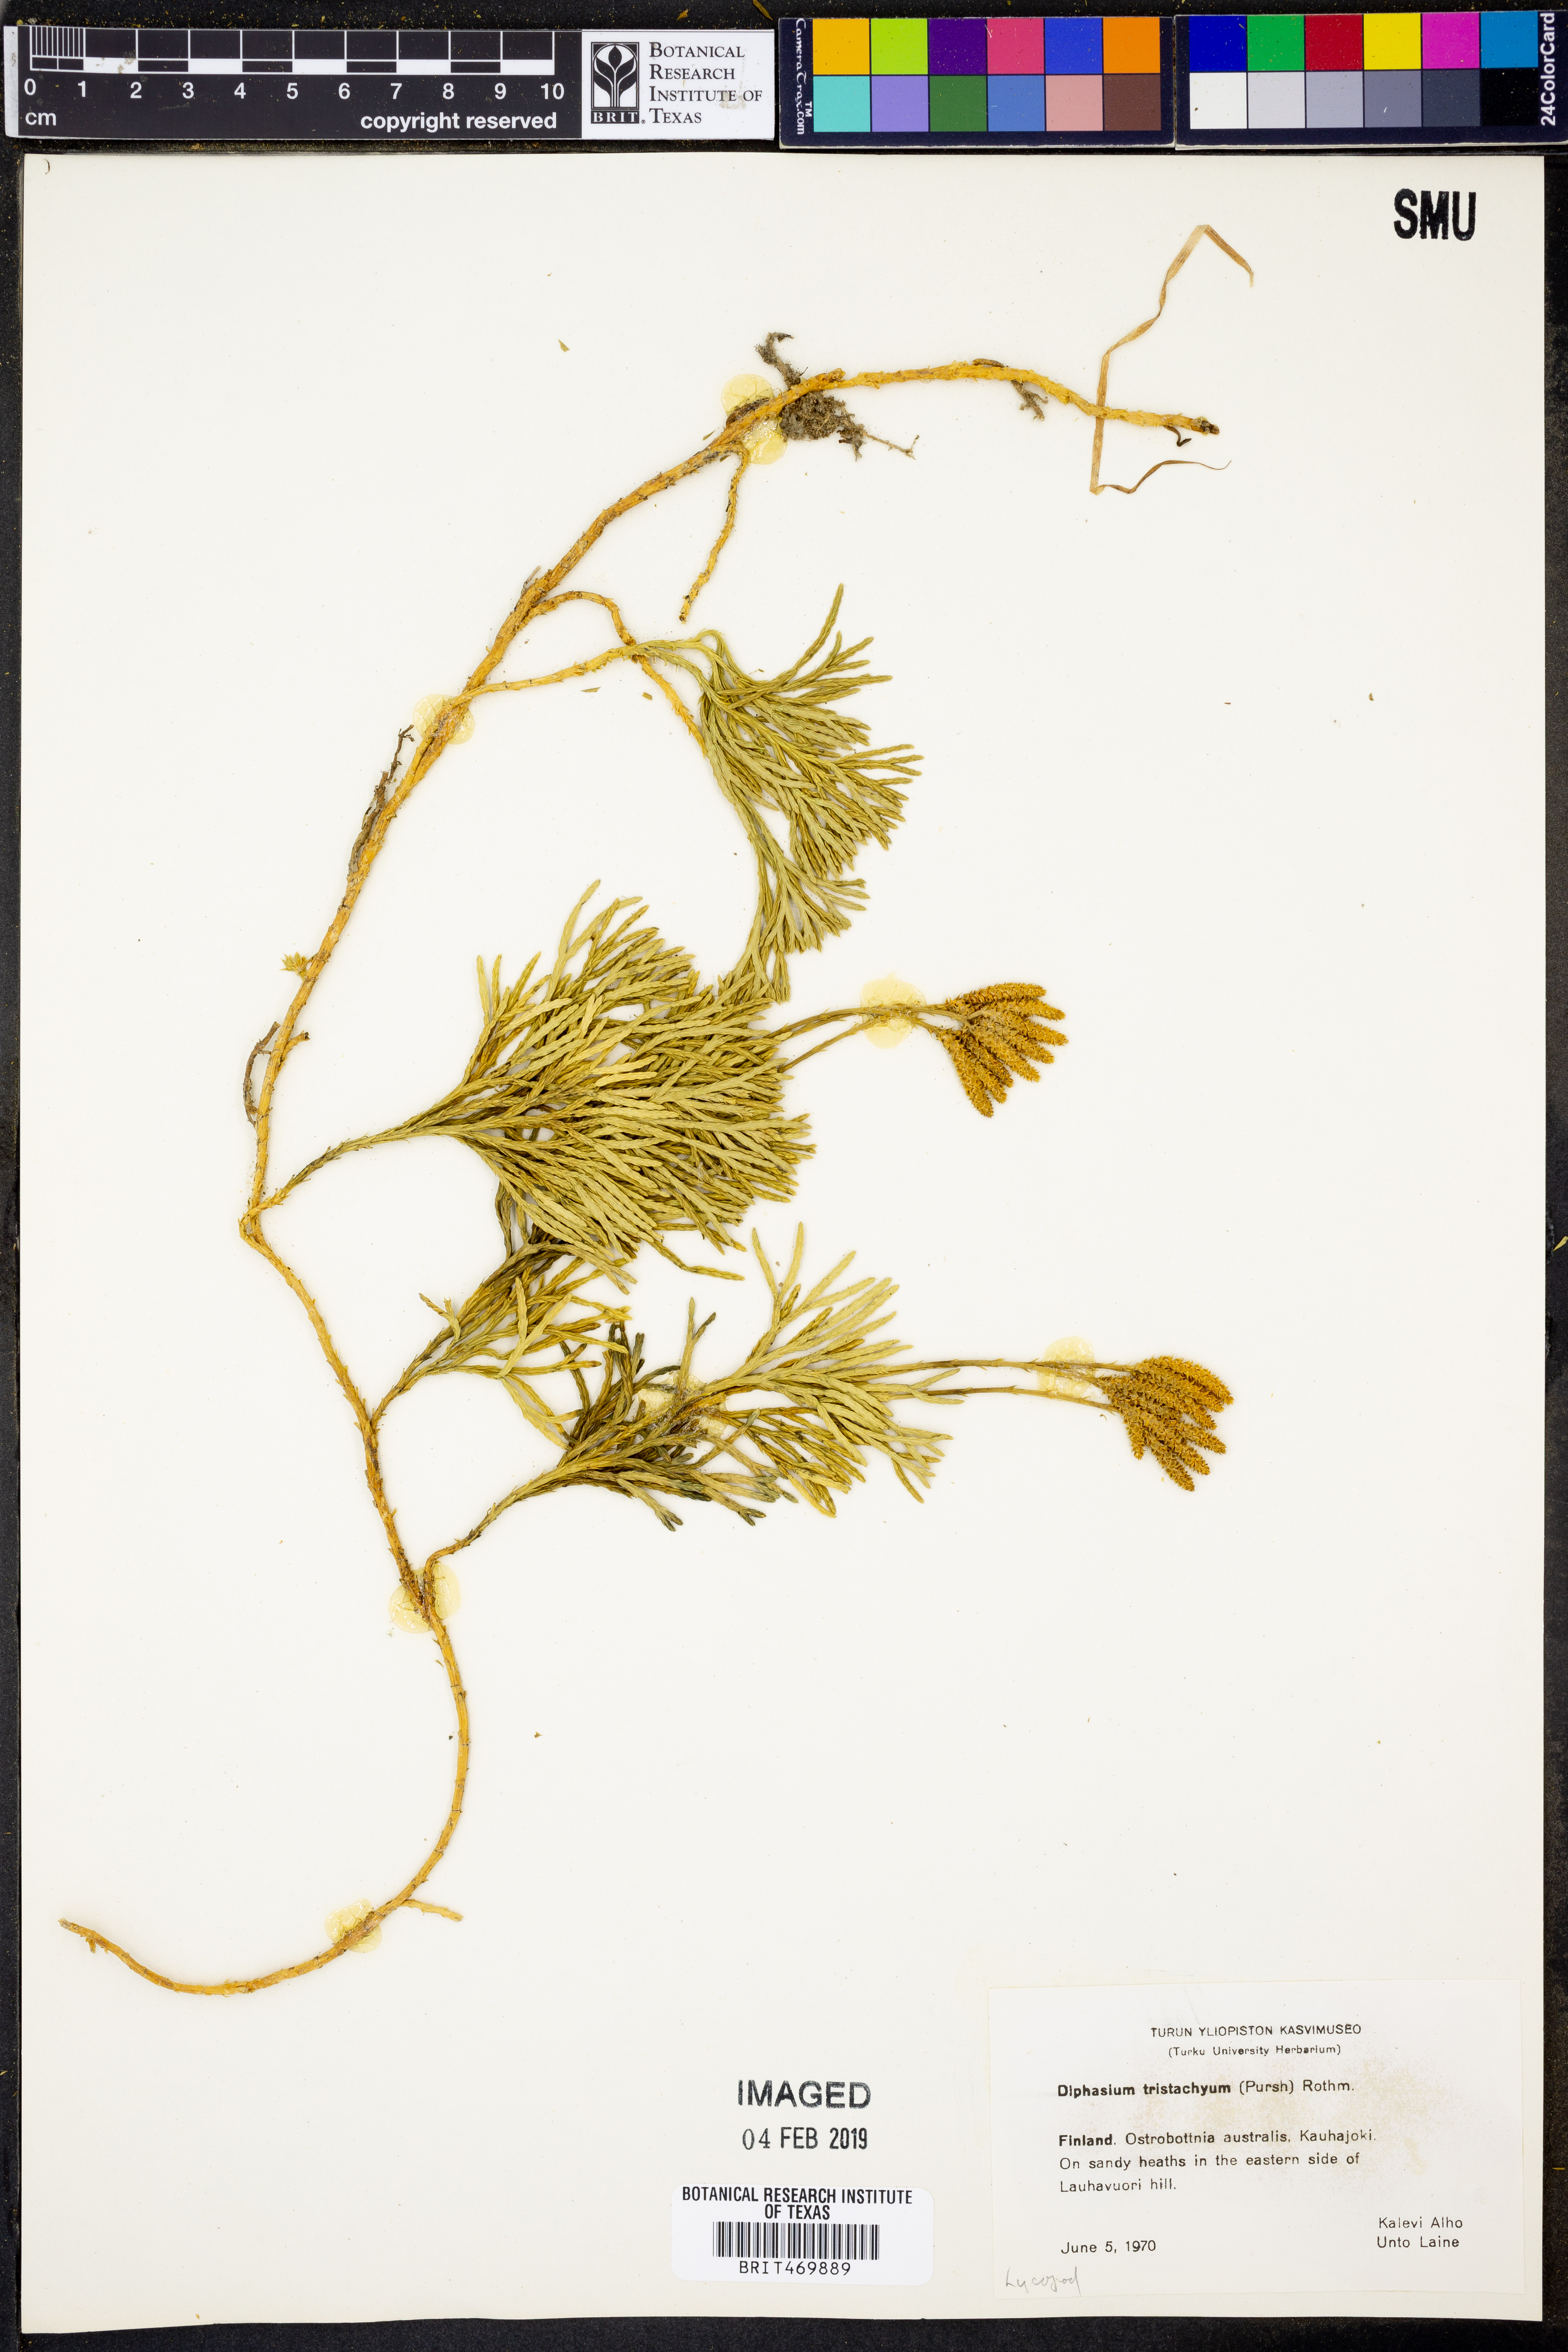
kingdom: Plantae
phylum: Tracheophyta
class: Lycopodiopsida
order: Lycopodiales
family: Lycopodiaceae
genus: Diphasiastrum
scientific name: Diphasiastrum tristachyum
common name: Blue ground-cedar
